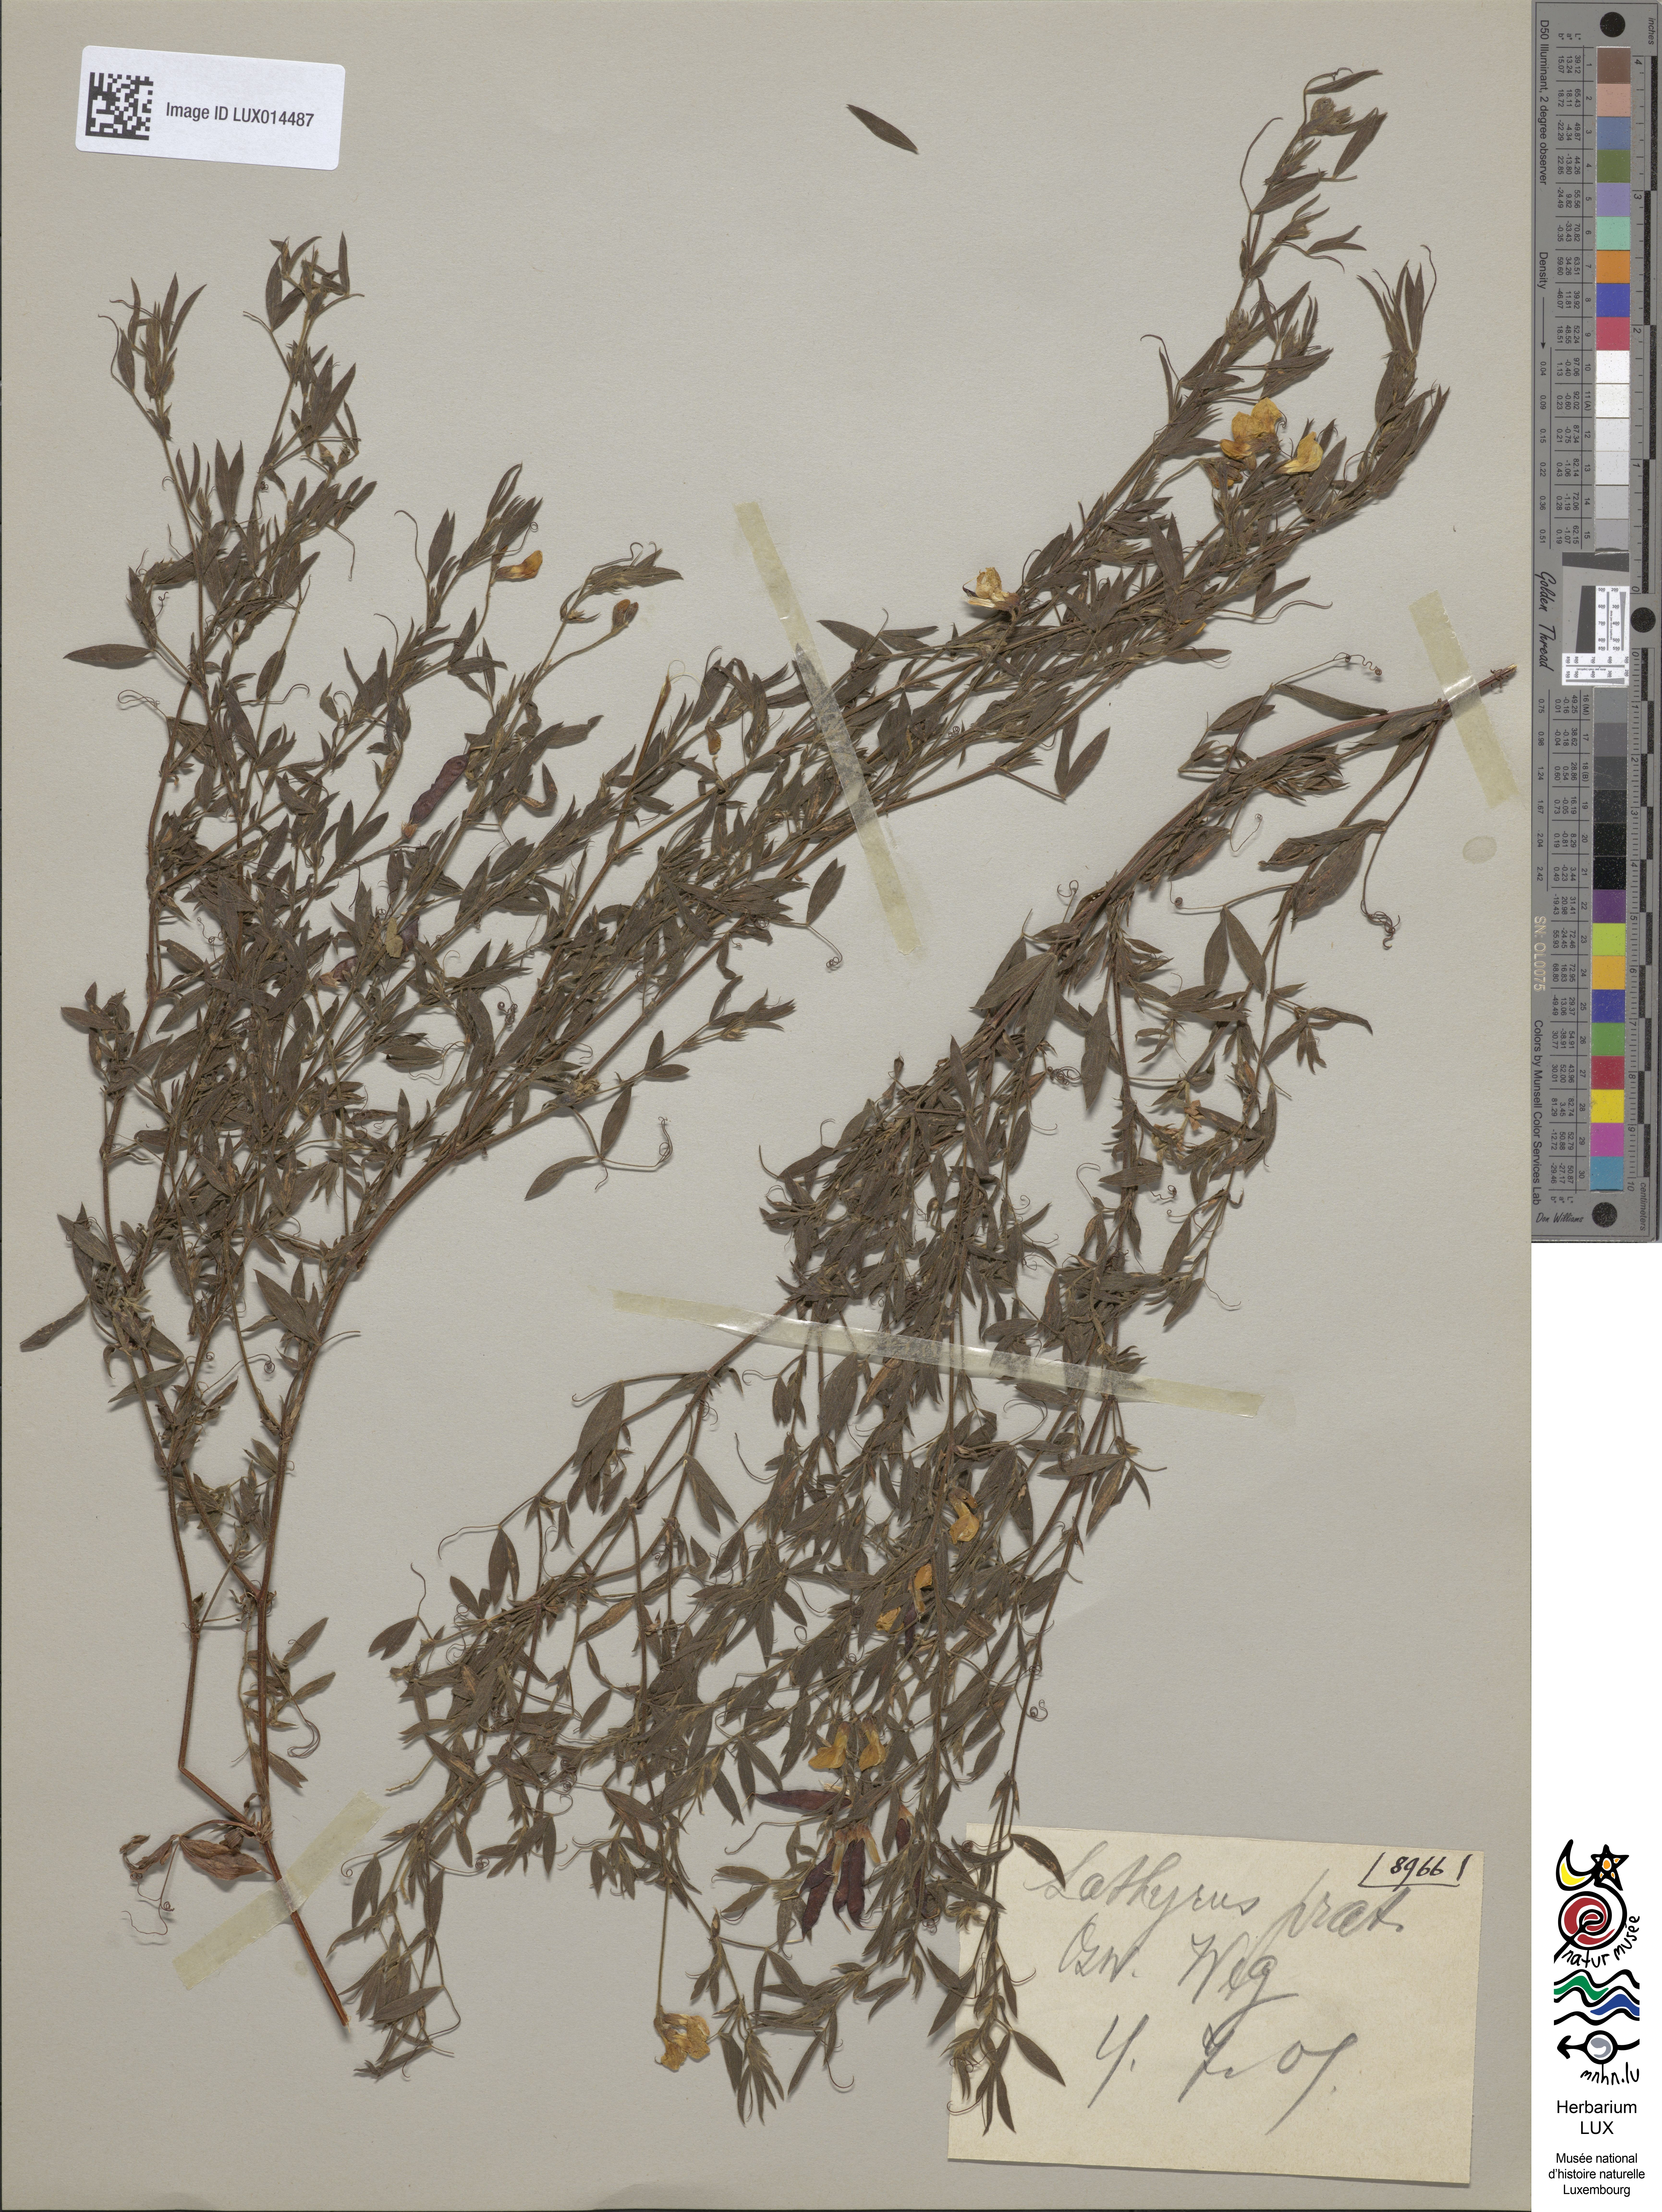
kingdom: Plantae
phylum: Tracheophyta
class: Magnoliopsida
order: Fabales
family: Fabaceae
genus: Lathyrus
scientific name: Lathyrus pratensis
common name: Meadow vetchling
